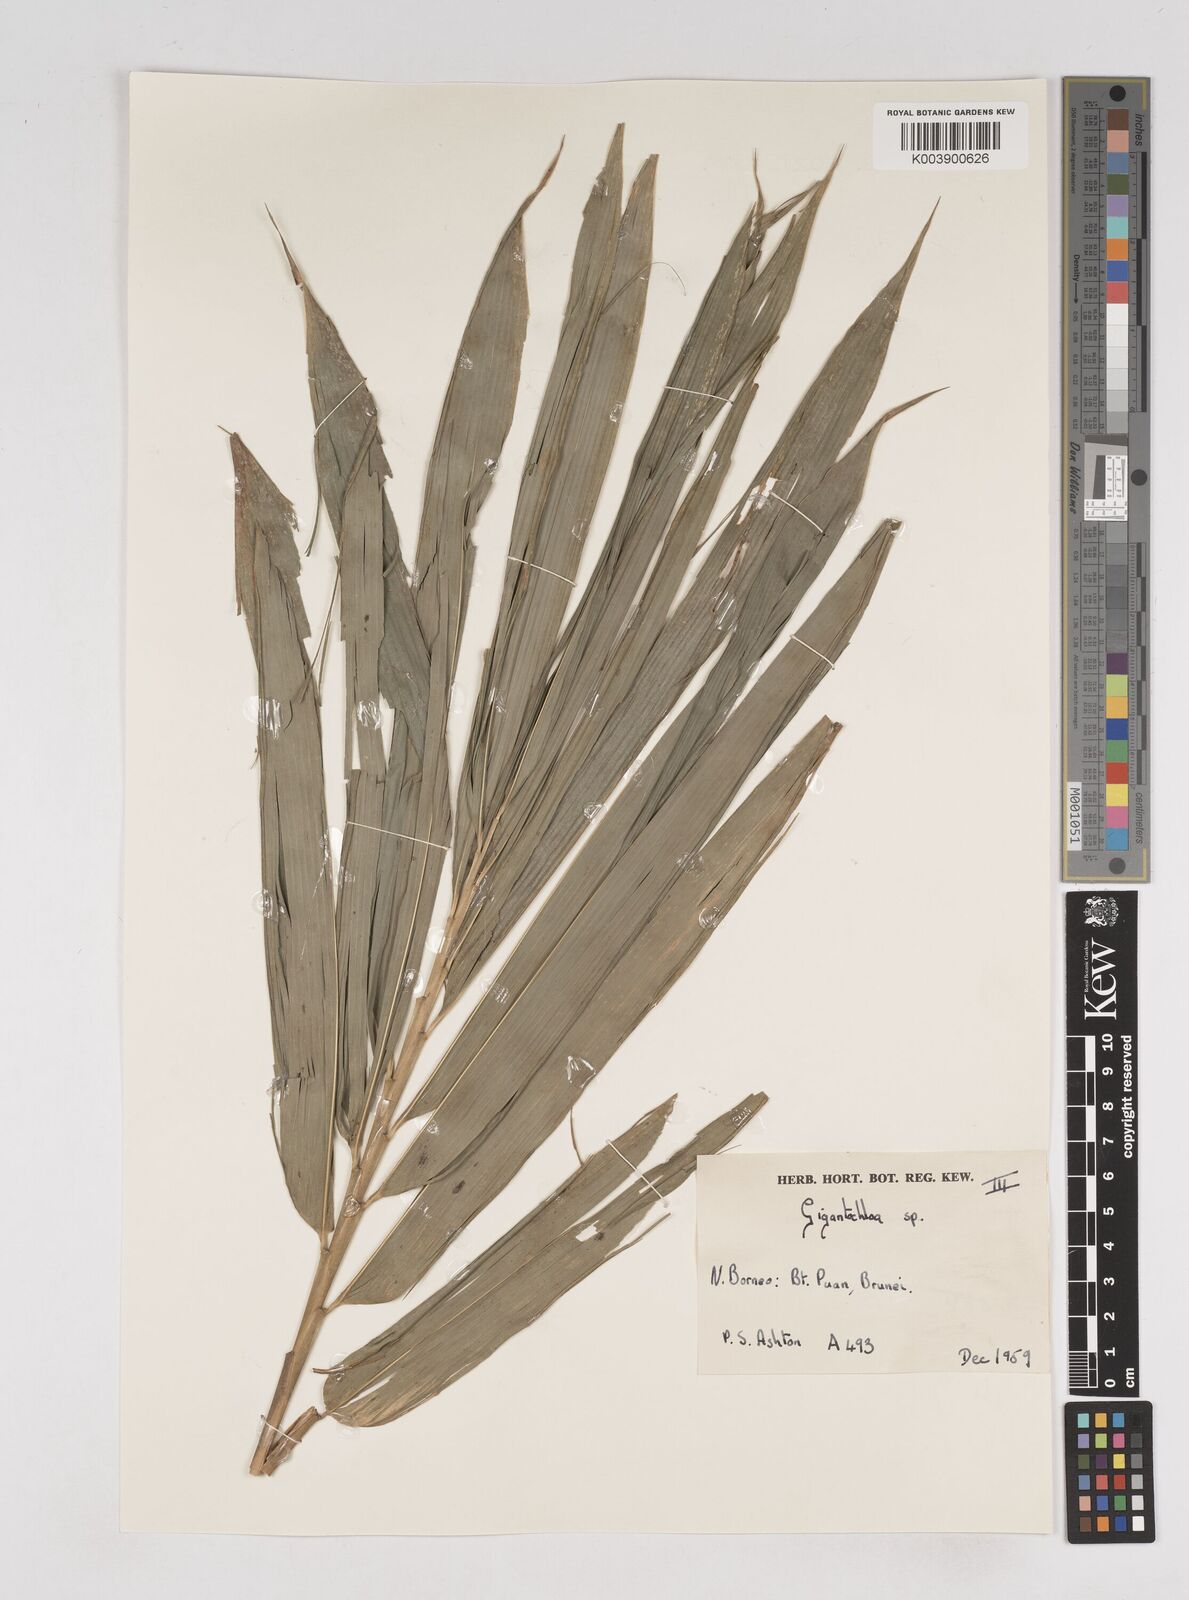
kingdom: Plantae
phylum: Tracheophyta
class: Liliopsida
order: Poales
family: Poaceae
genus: Gigantochloa
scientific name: Gigantochloa
